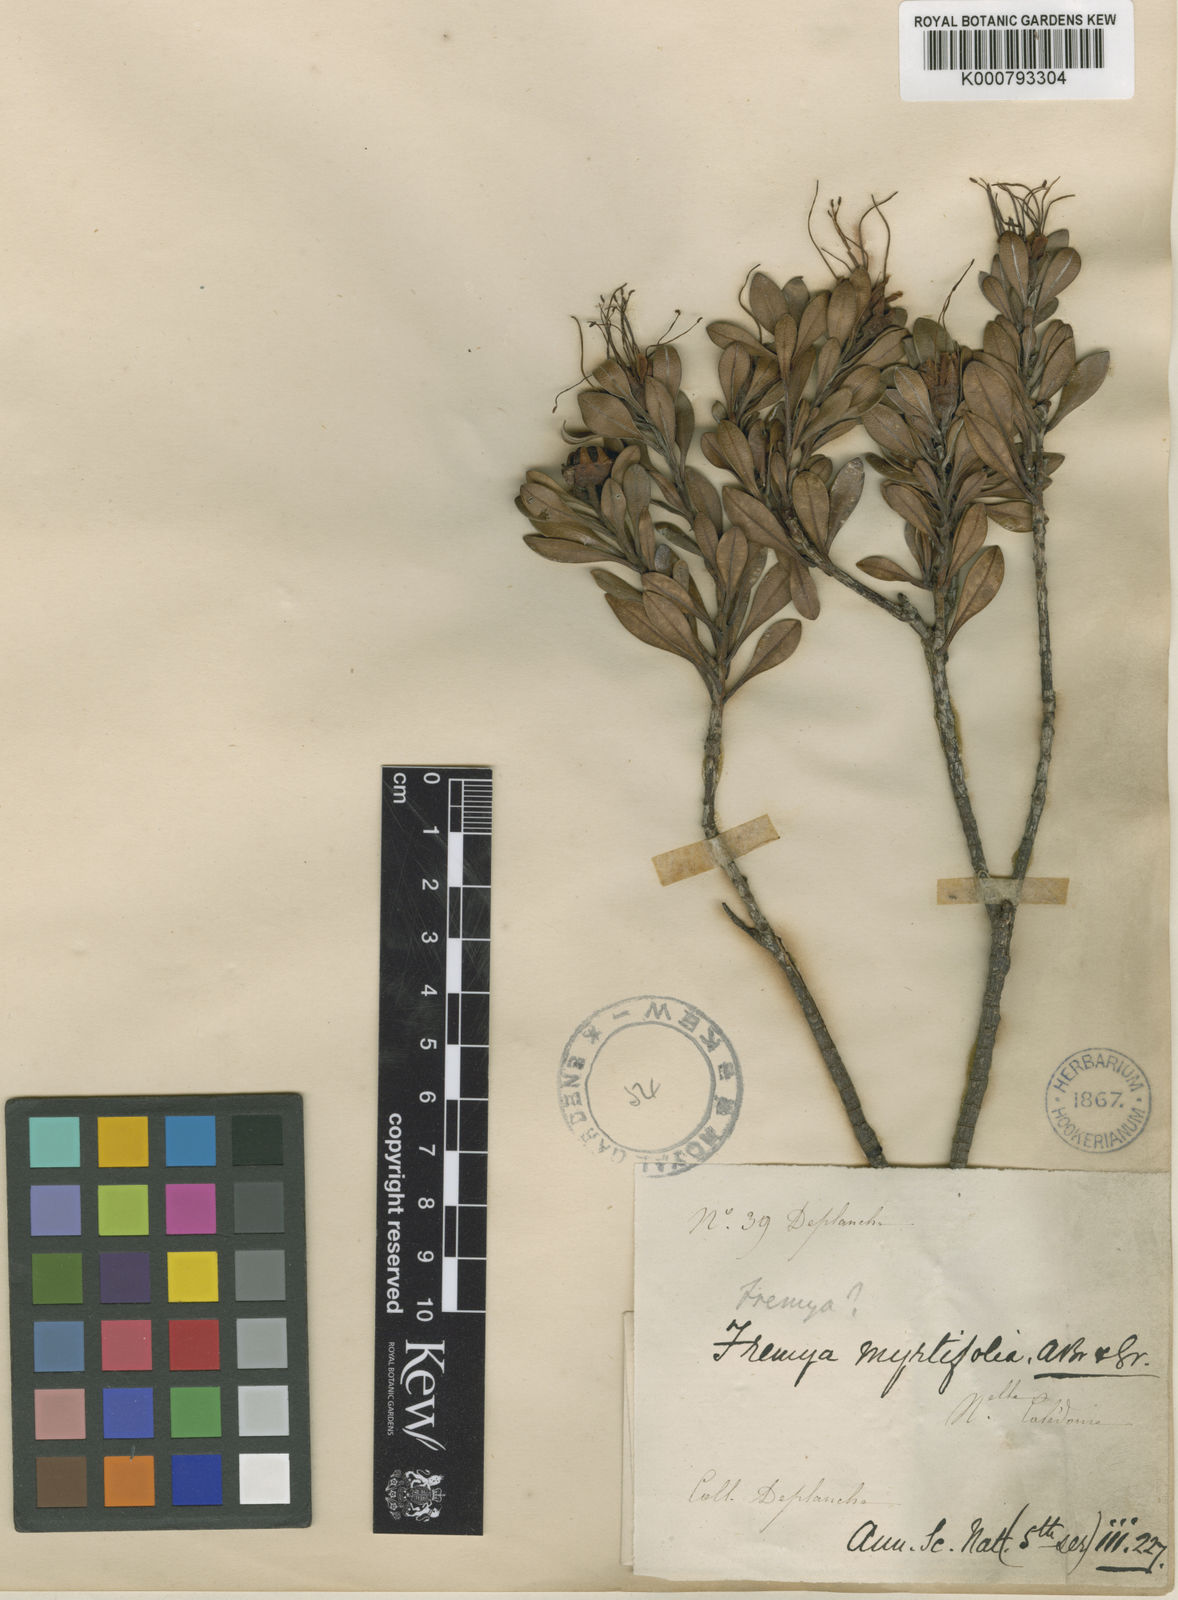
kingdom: Plantae
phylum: Tracheophyta
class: Magnoliopsida
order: Myrtales
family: Myrtaceae
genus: Xanthostemon
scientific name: Xanthostemon myrtifolius
